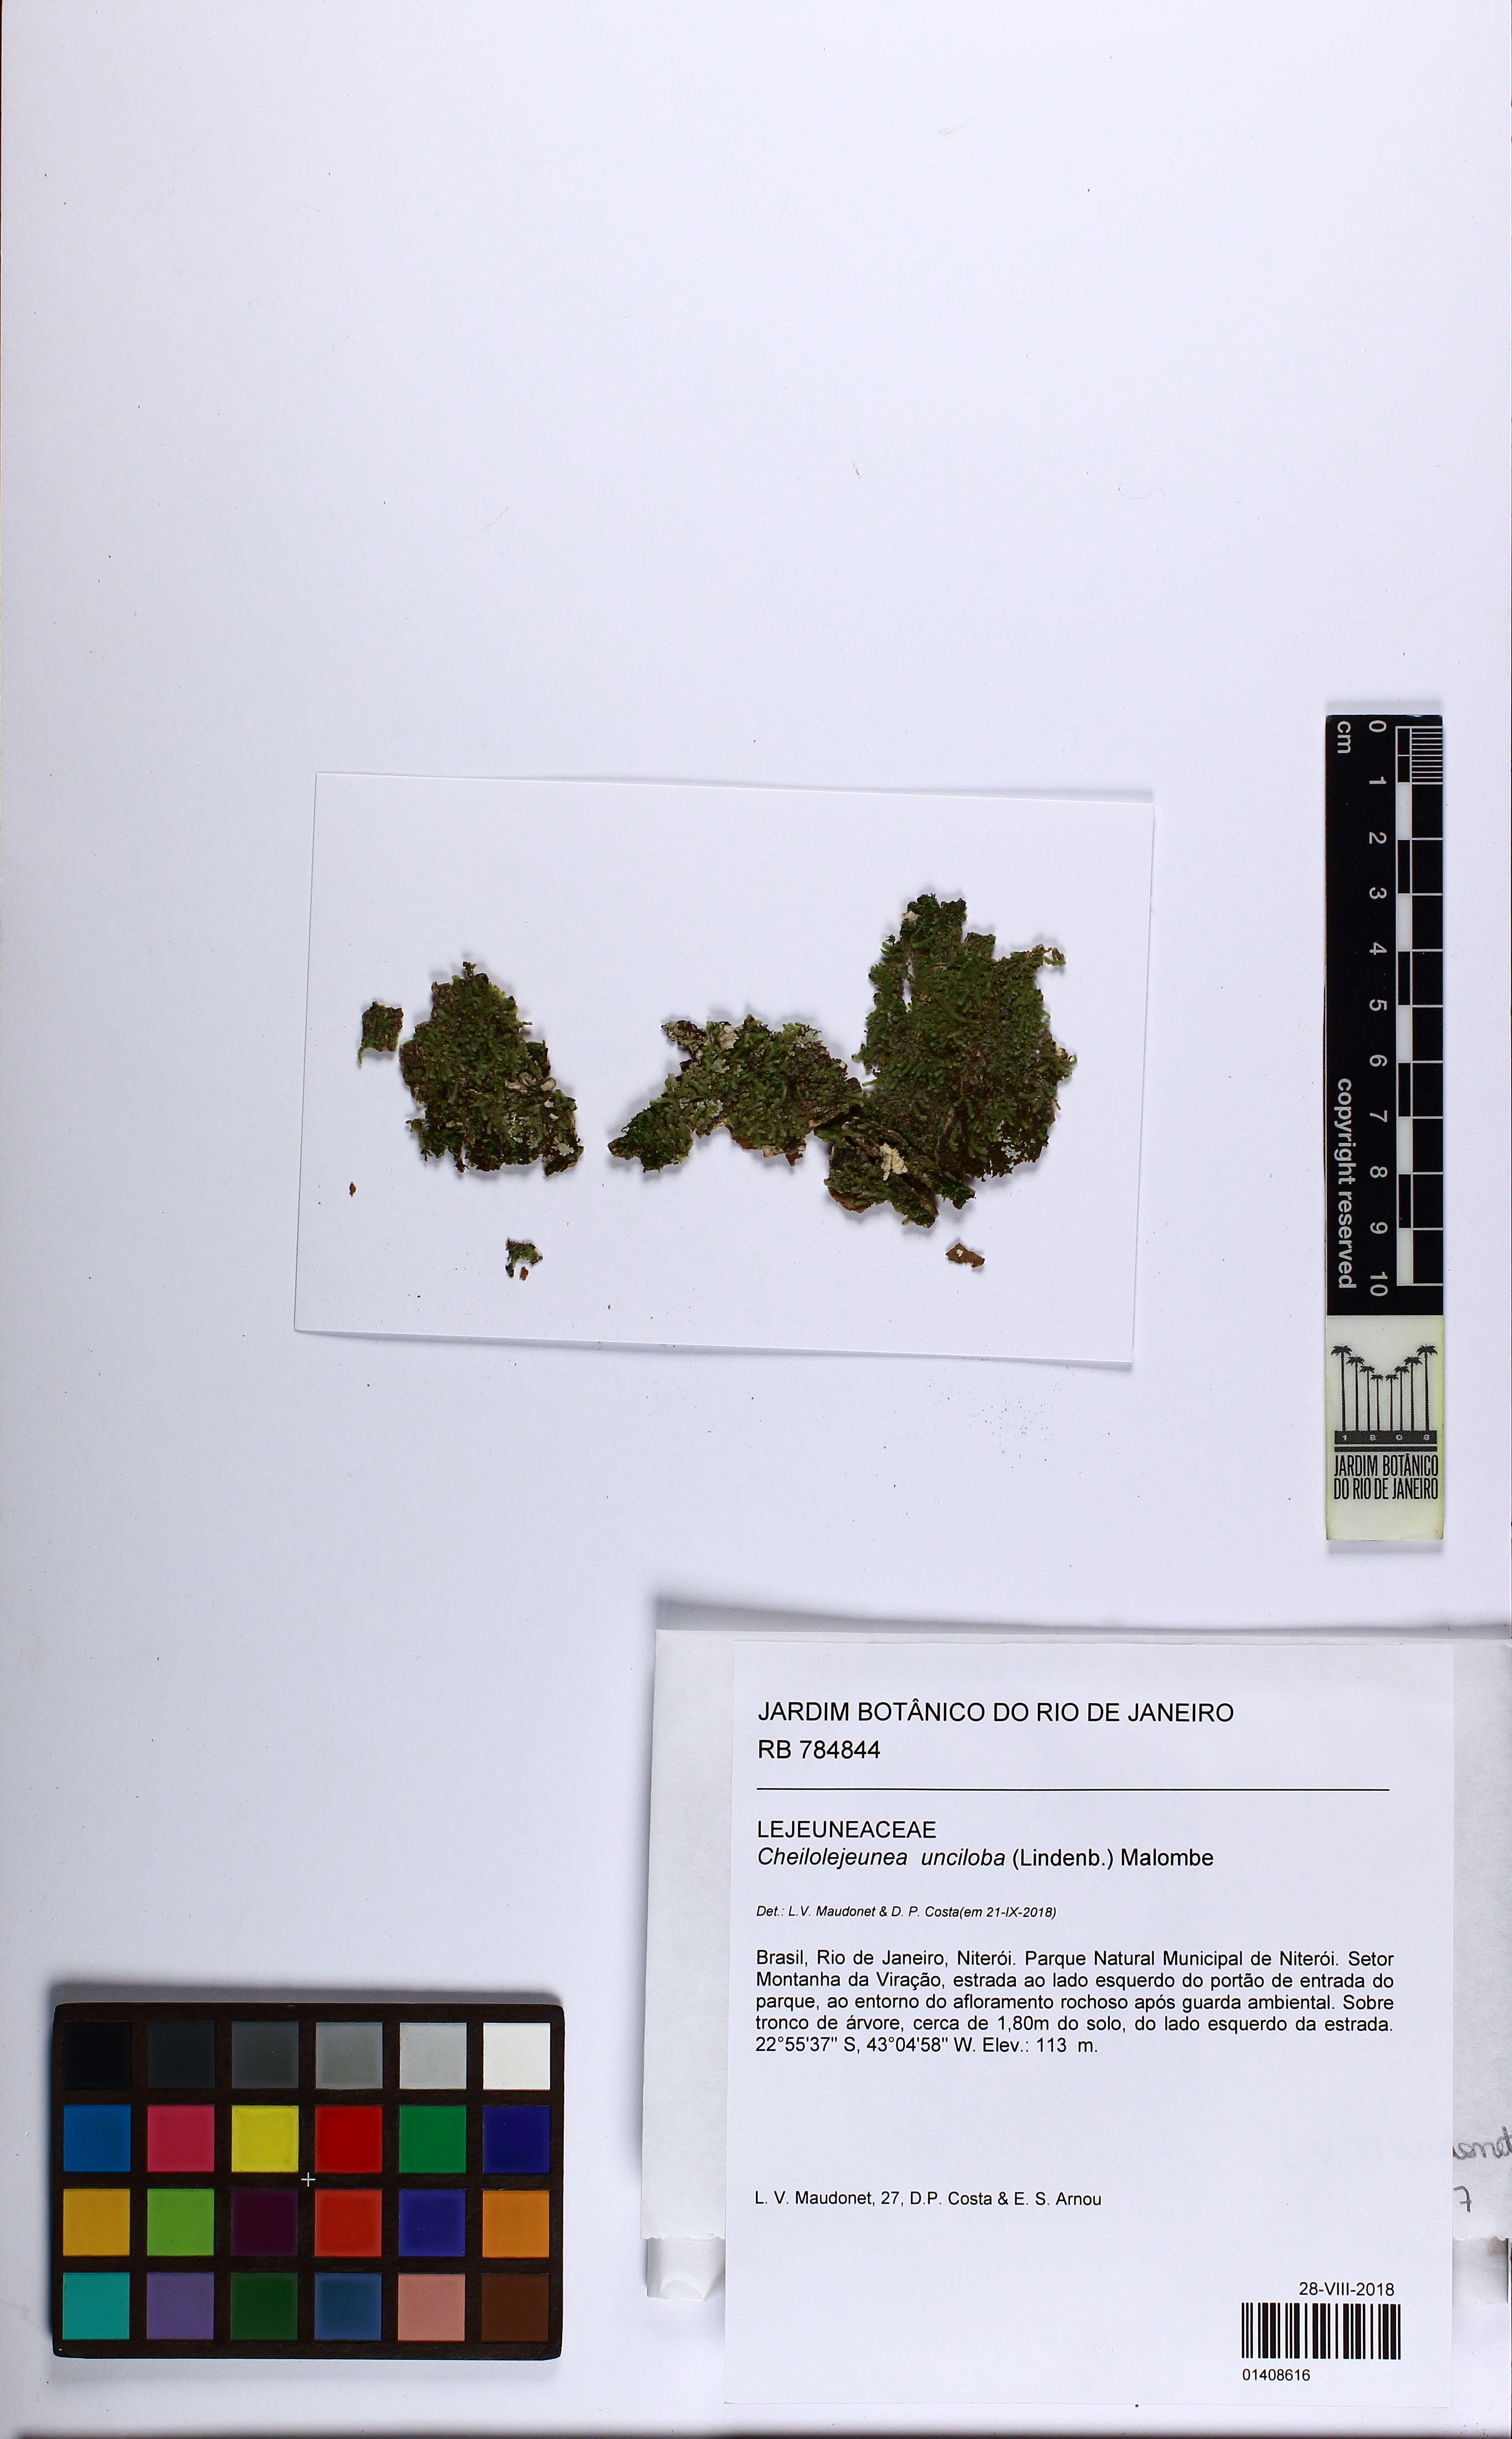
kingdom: Plantae
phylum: Marchantiophyta
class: Jungermanniopsida
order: Porellales
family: Lejeuneaceae
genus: Cheilolejeunea
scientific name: Cheilolejeunea unciloba
